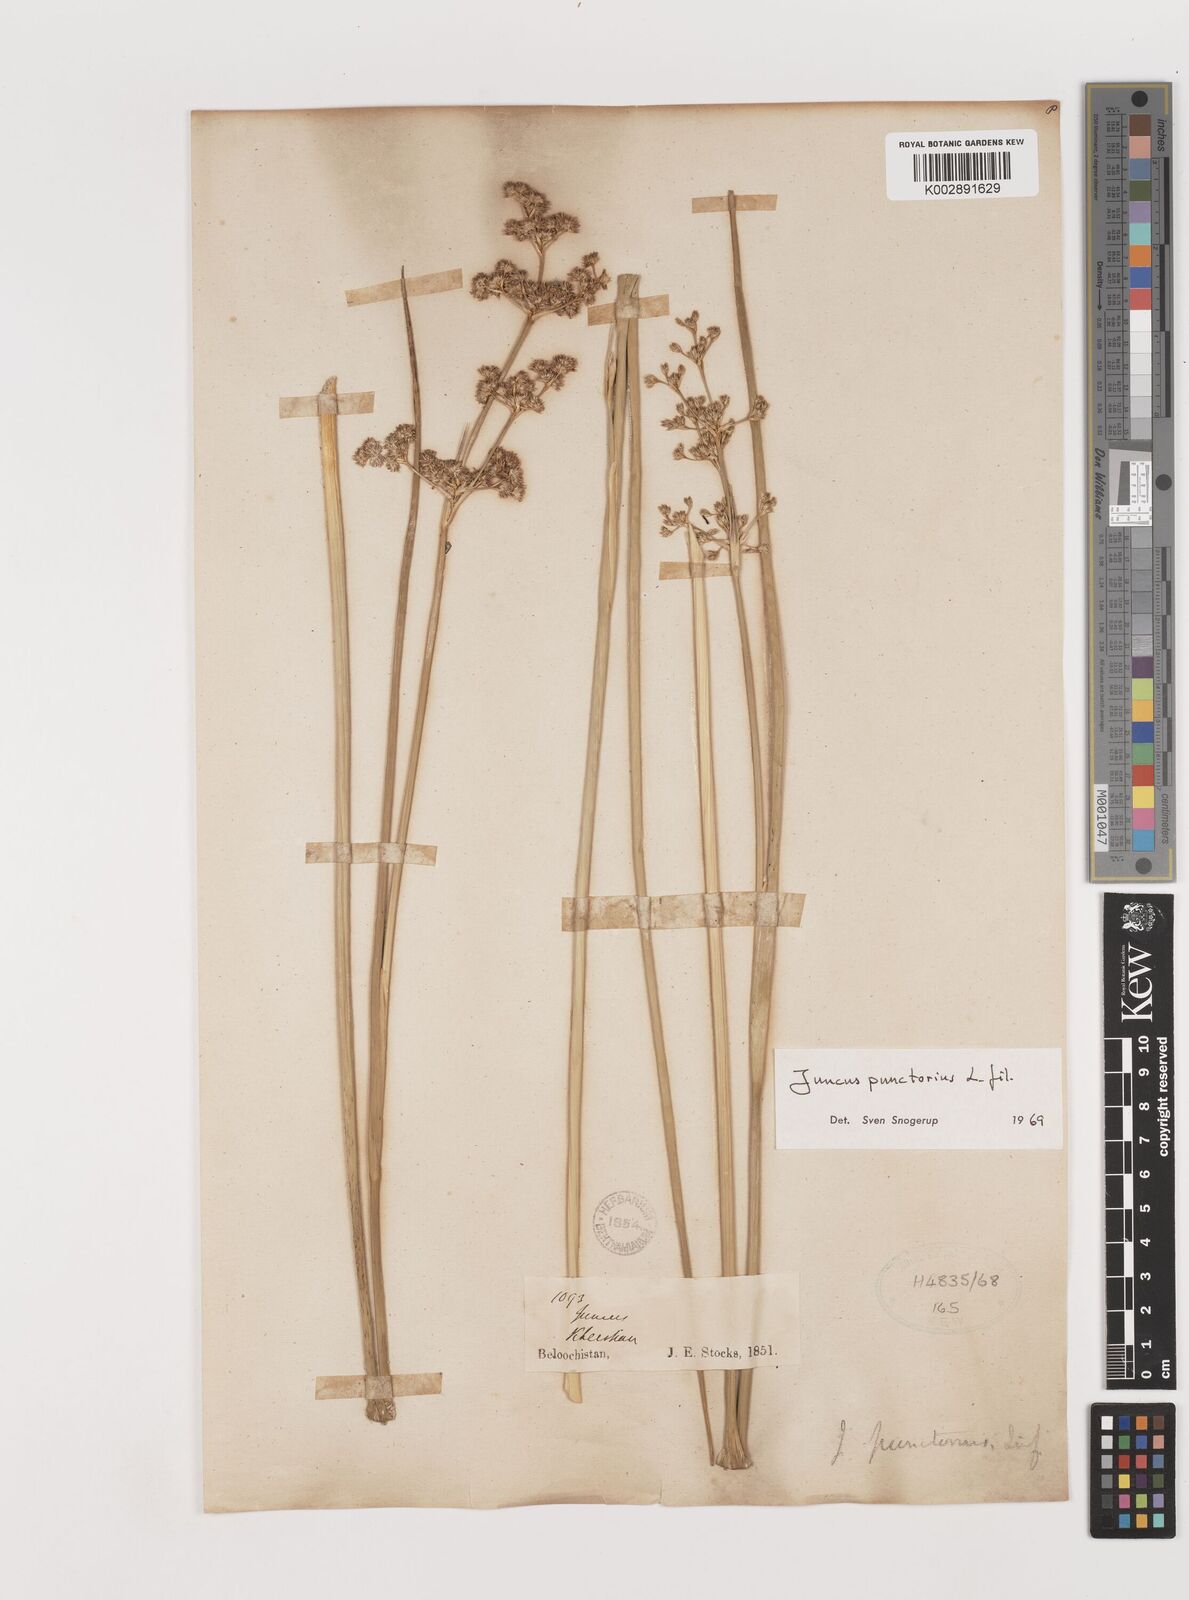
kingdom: Plantae
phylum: Tracheophyta
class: Liliopsida
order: Poales
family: Juncaceae
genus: Juncus
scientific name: Juncus punctorius
